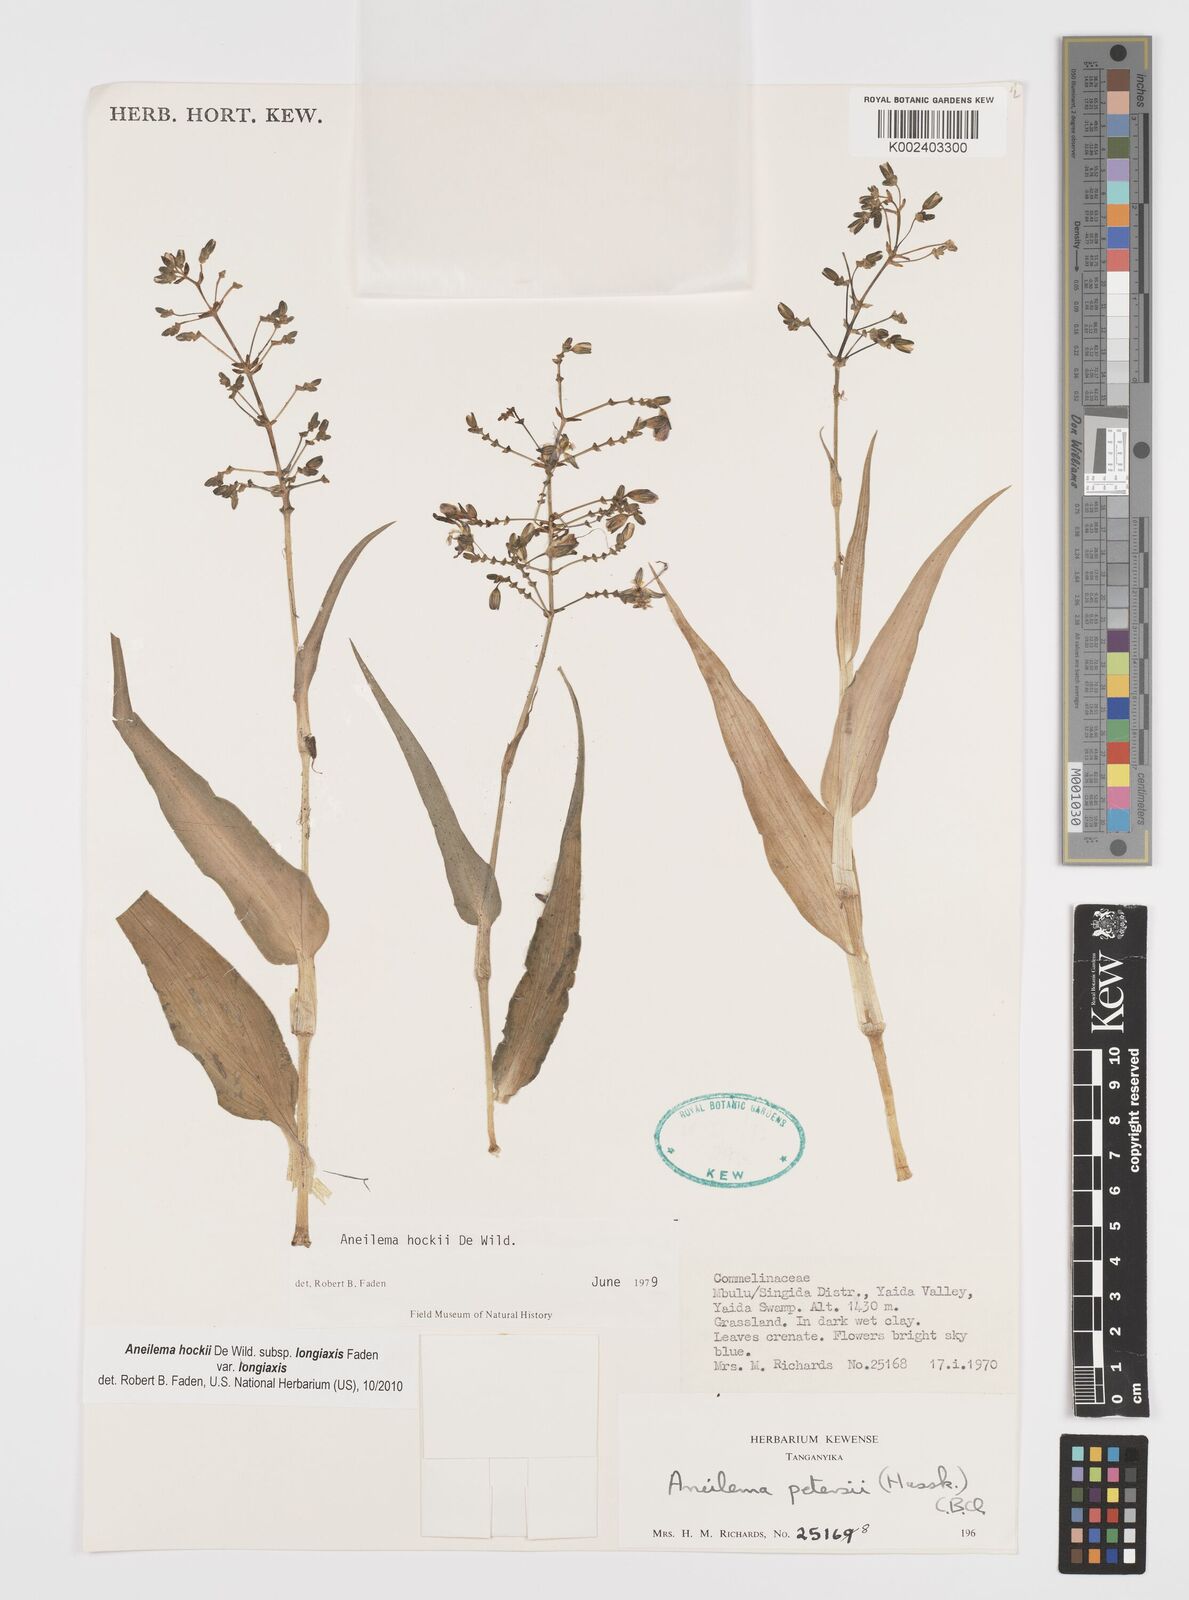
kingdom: Plantae
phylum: Tracheophyta
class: Liliopsida
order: Commelinales
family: Commelinaceae
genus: Aneilema
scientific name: Aneilema hockii
